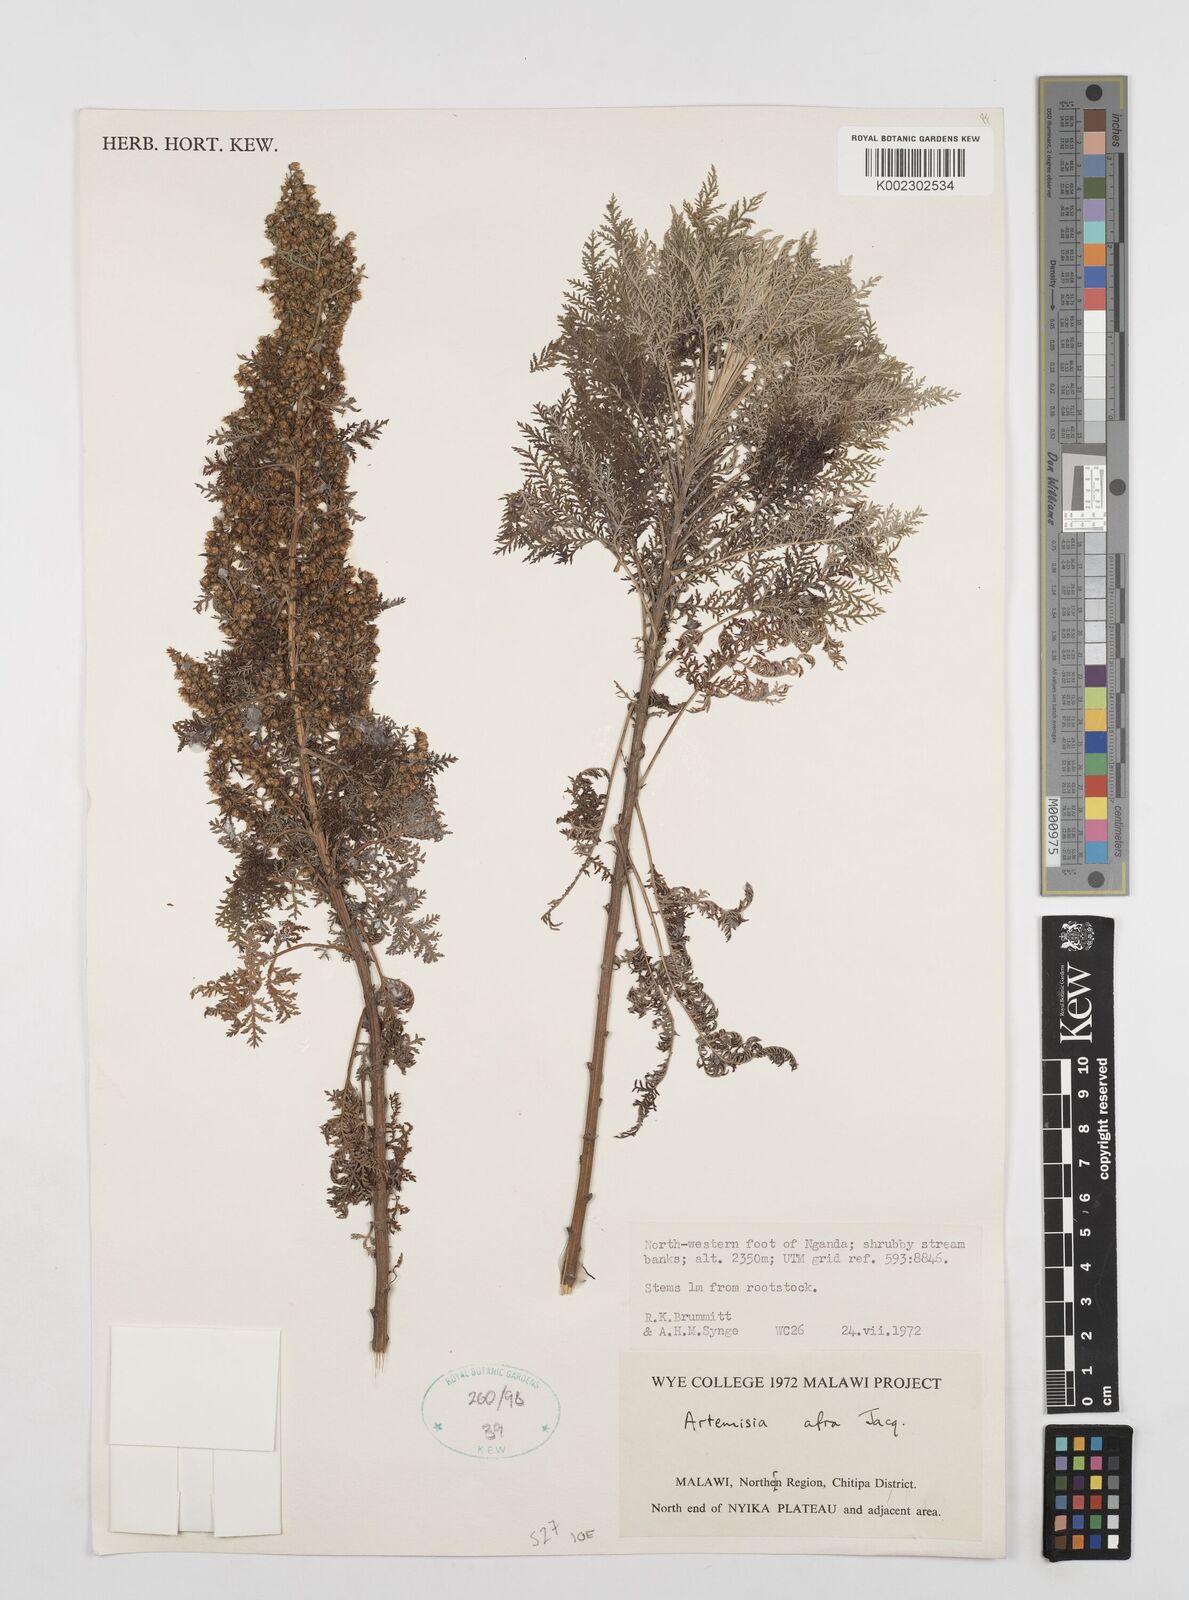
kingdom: Plantae
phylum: Tracheophyta
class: Magnoliopsida
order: Asterales
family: Asteraceae
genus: Artemisia
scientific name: Artemisia afra
